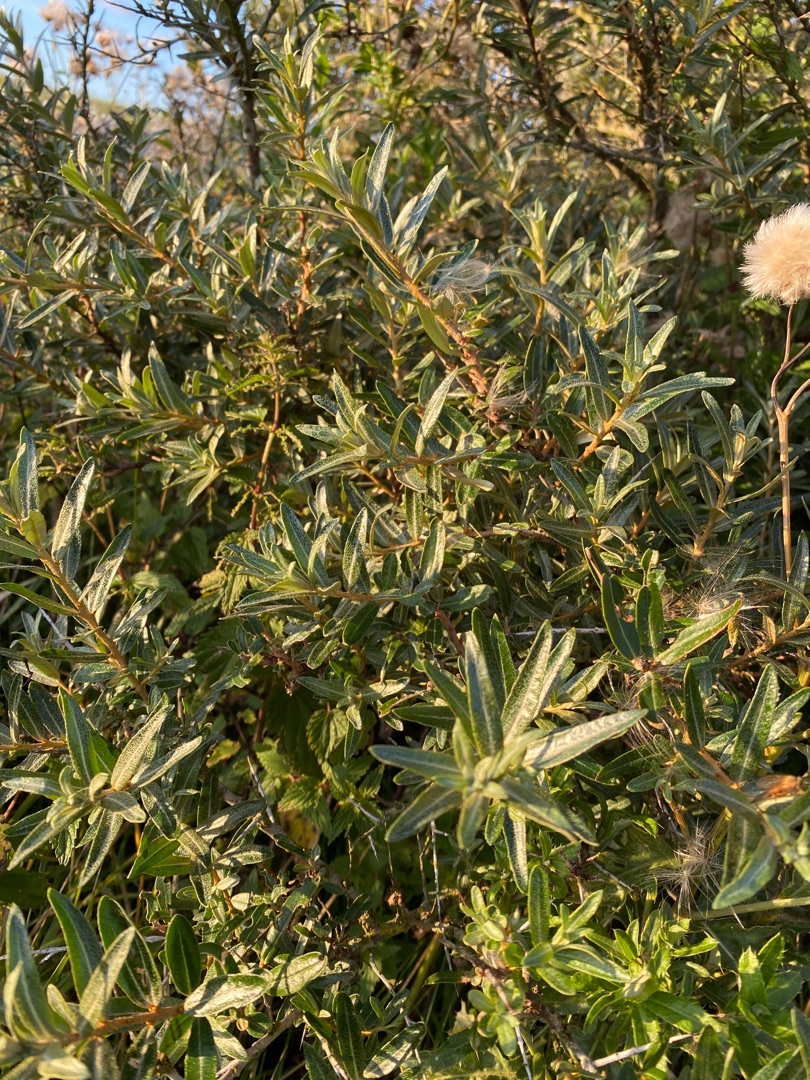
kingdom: Plantae
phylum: Tracheophyta
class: Magnoliopsida
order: Rosales
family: Elaeagnaceae
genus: Hippophae
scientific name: Hippophae rhamnoides
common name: Havtorn
